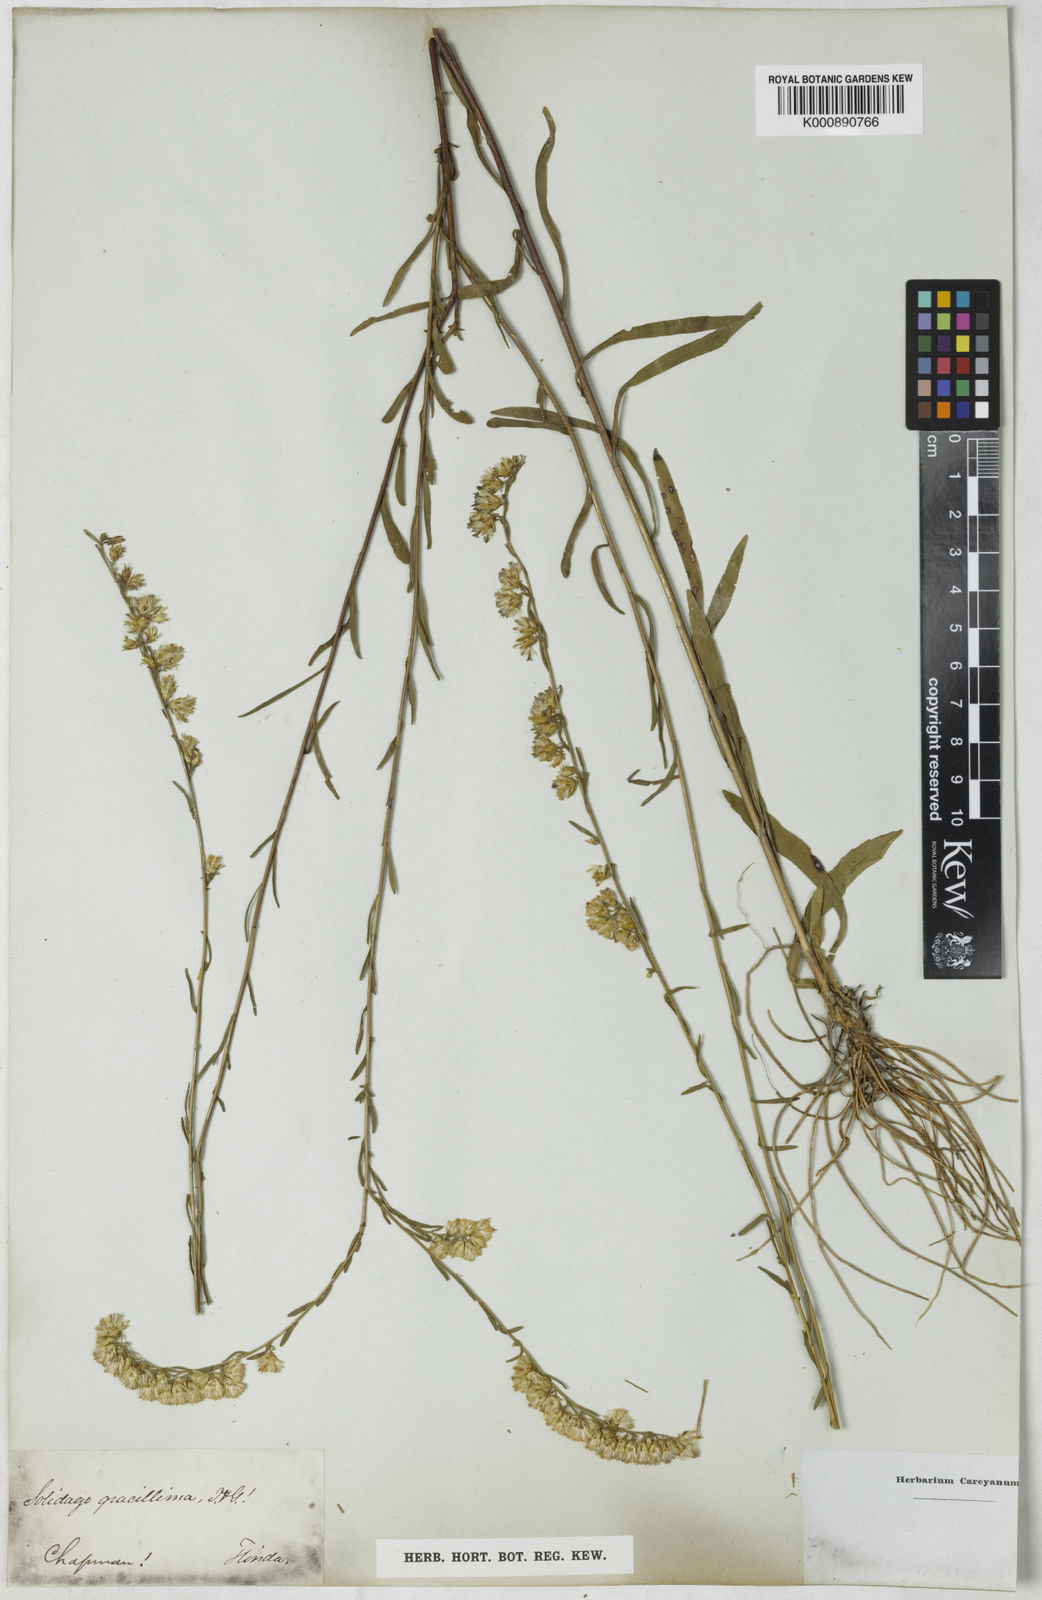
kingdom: Plantae
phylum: Tracheophyta
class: Magnoliopsida
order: Asterales
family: Asteraceae
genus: Solidago
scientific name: Solidago gracillima
